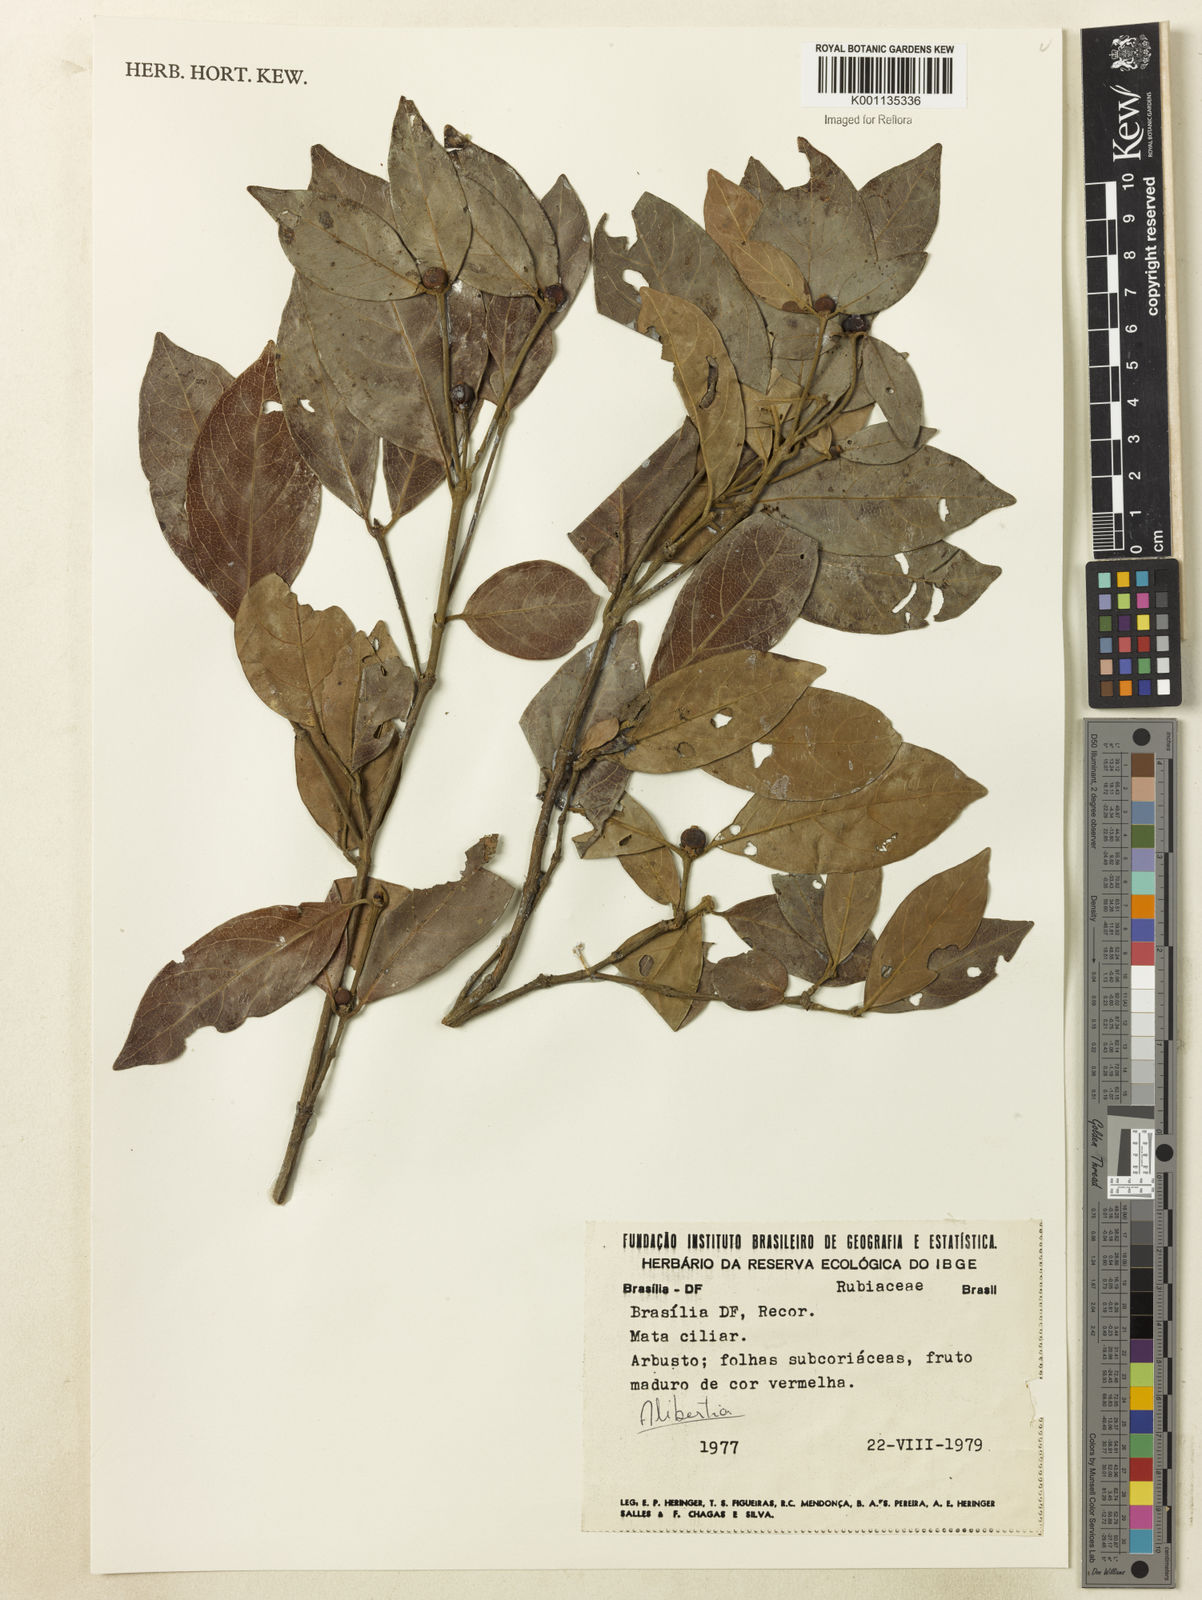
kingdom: Plantae
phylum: Tracheophyta
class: Magnoliopsida
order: Gentianales
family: Rubiaceae
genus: Cordiera
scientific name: Cordiera elliptica
